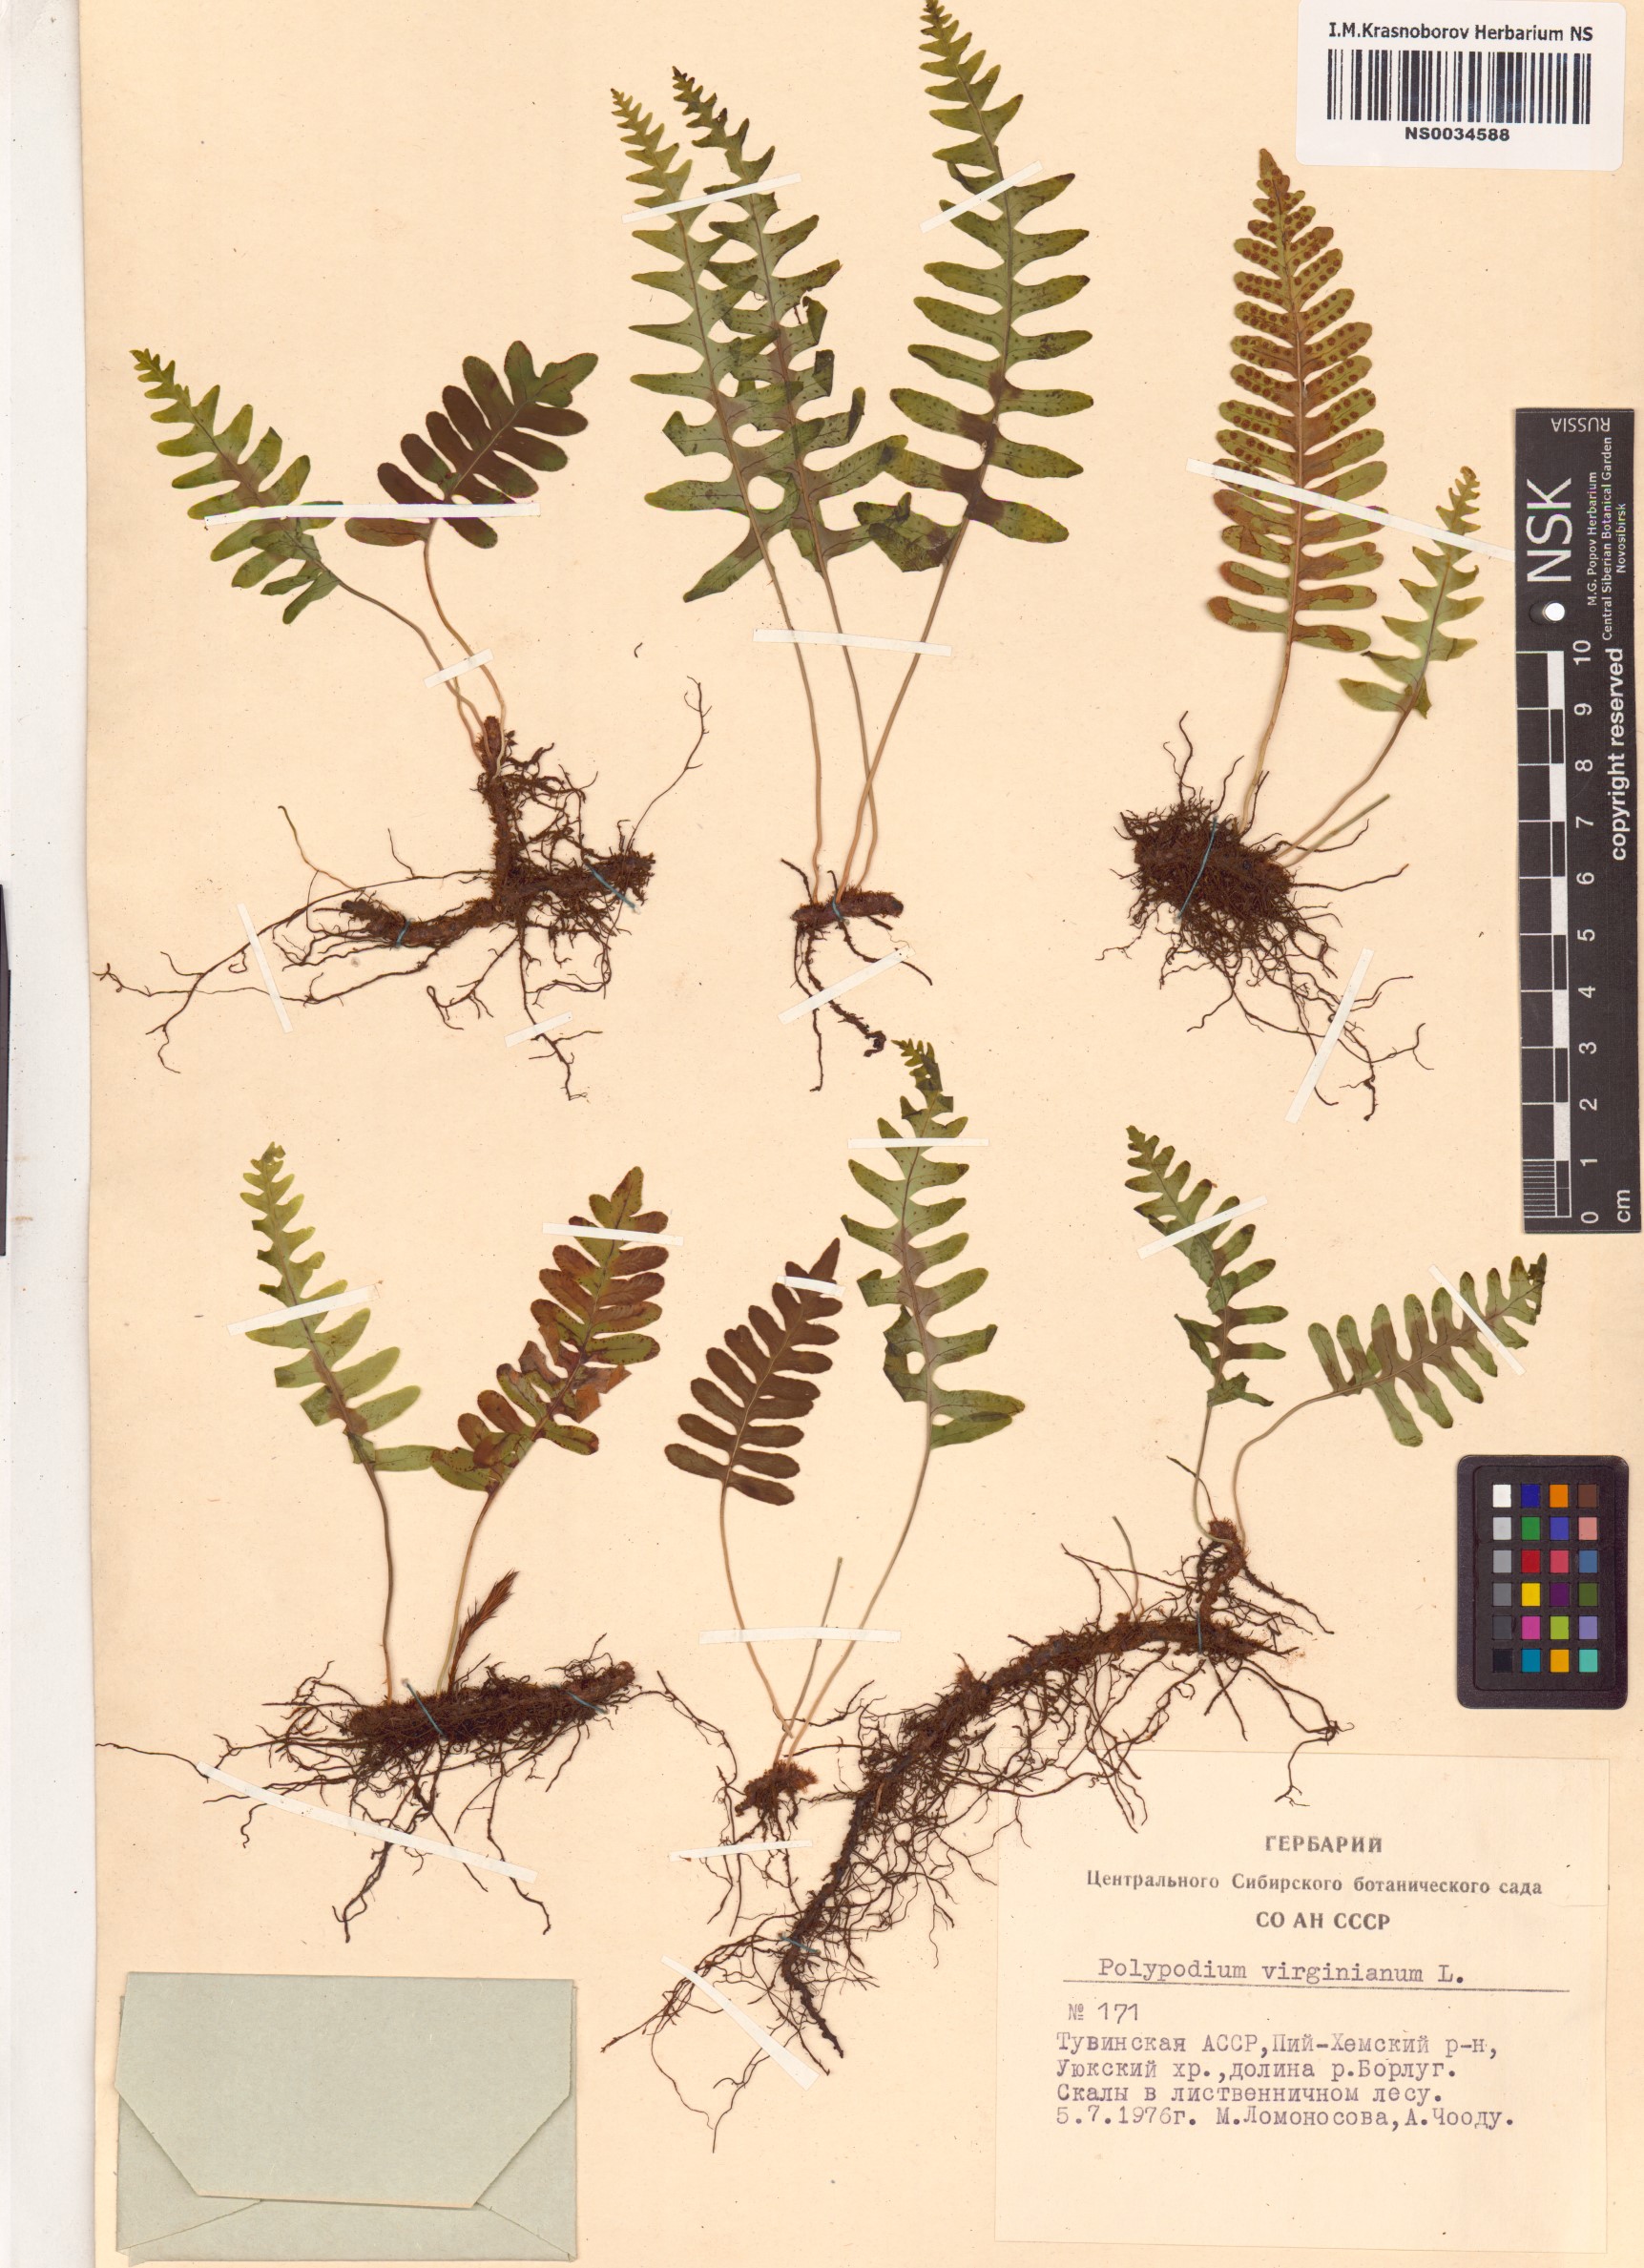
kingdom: Plantae
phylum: Tracheophyta
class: Polypodiopsida
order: Polypodiales
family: Polypodiaceae
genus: Polypodium
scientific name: Polypodium virginianum
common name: American wall fern
